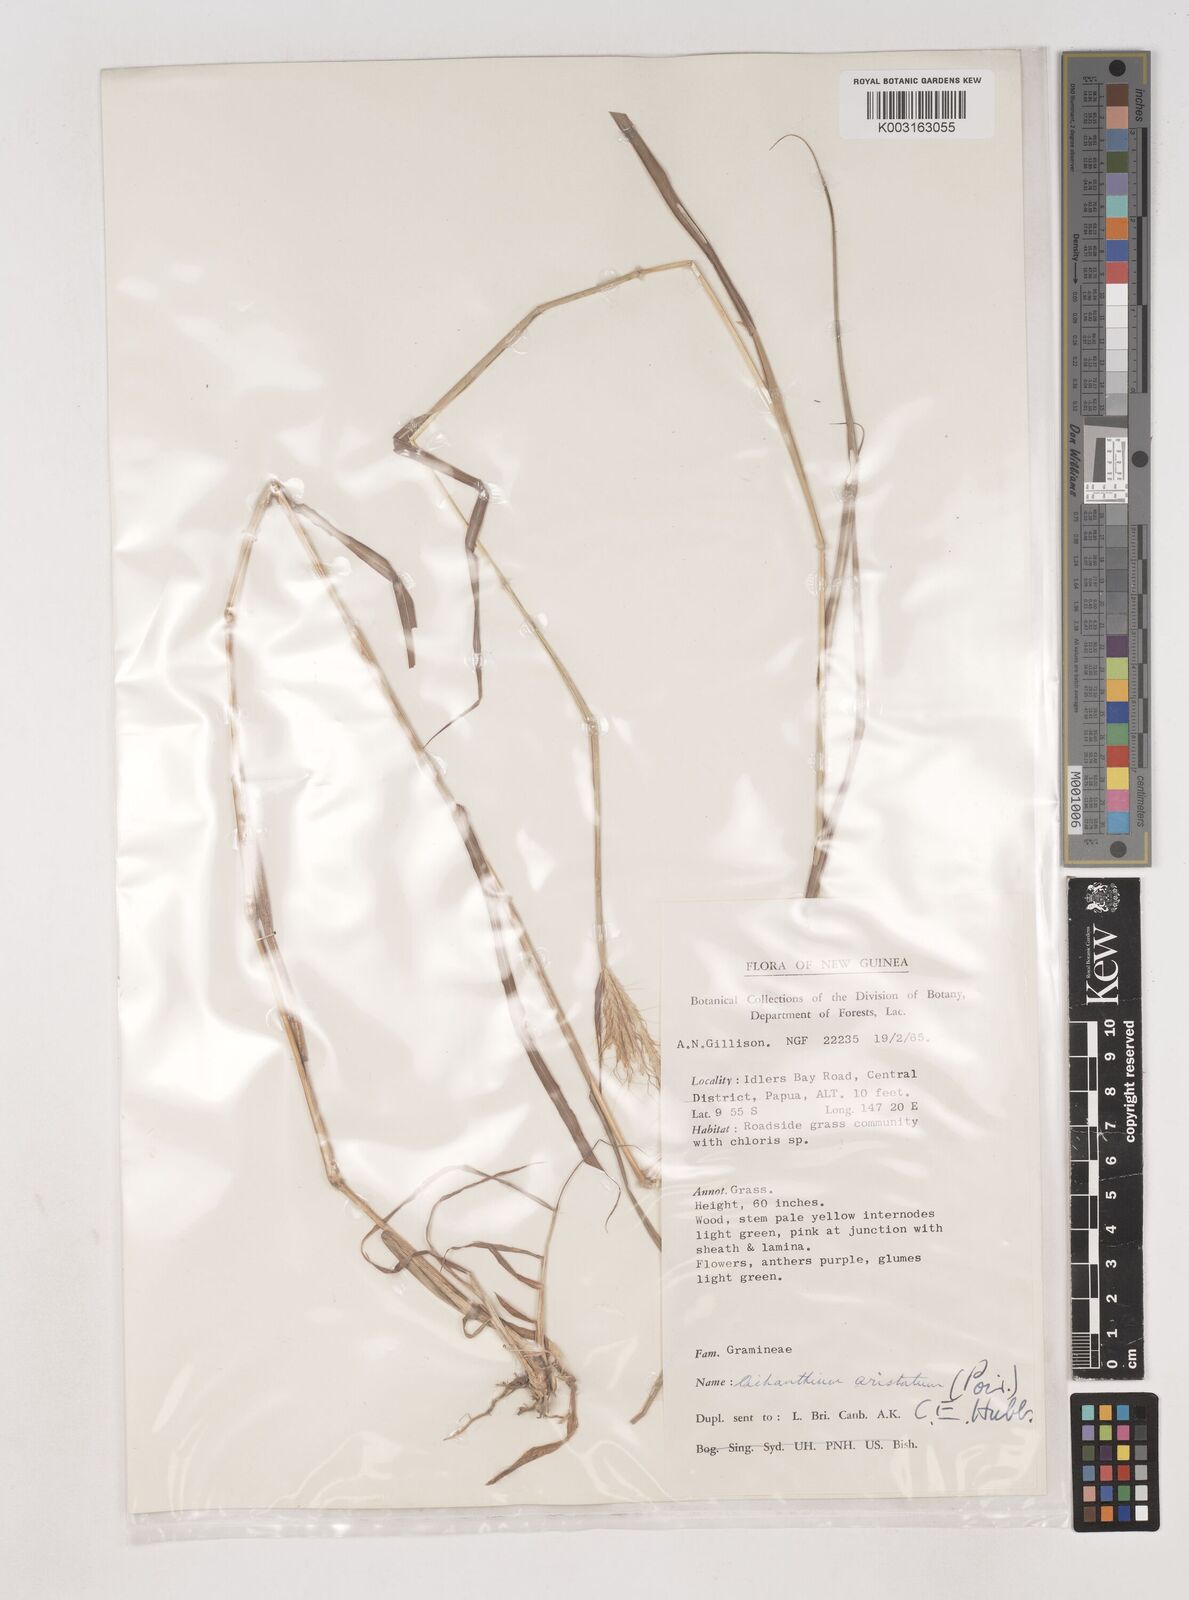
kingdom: Plantae
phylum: Tracheophyta
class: Liliopsida
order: Poales
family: Poaceae
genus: Dichanthium
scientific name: Dichanthium aristatum
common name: Angleton bluestem
